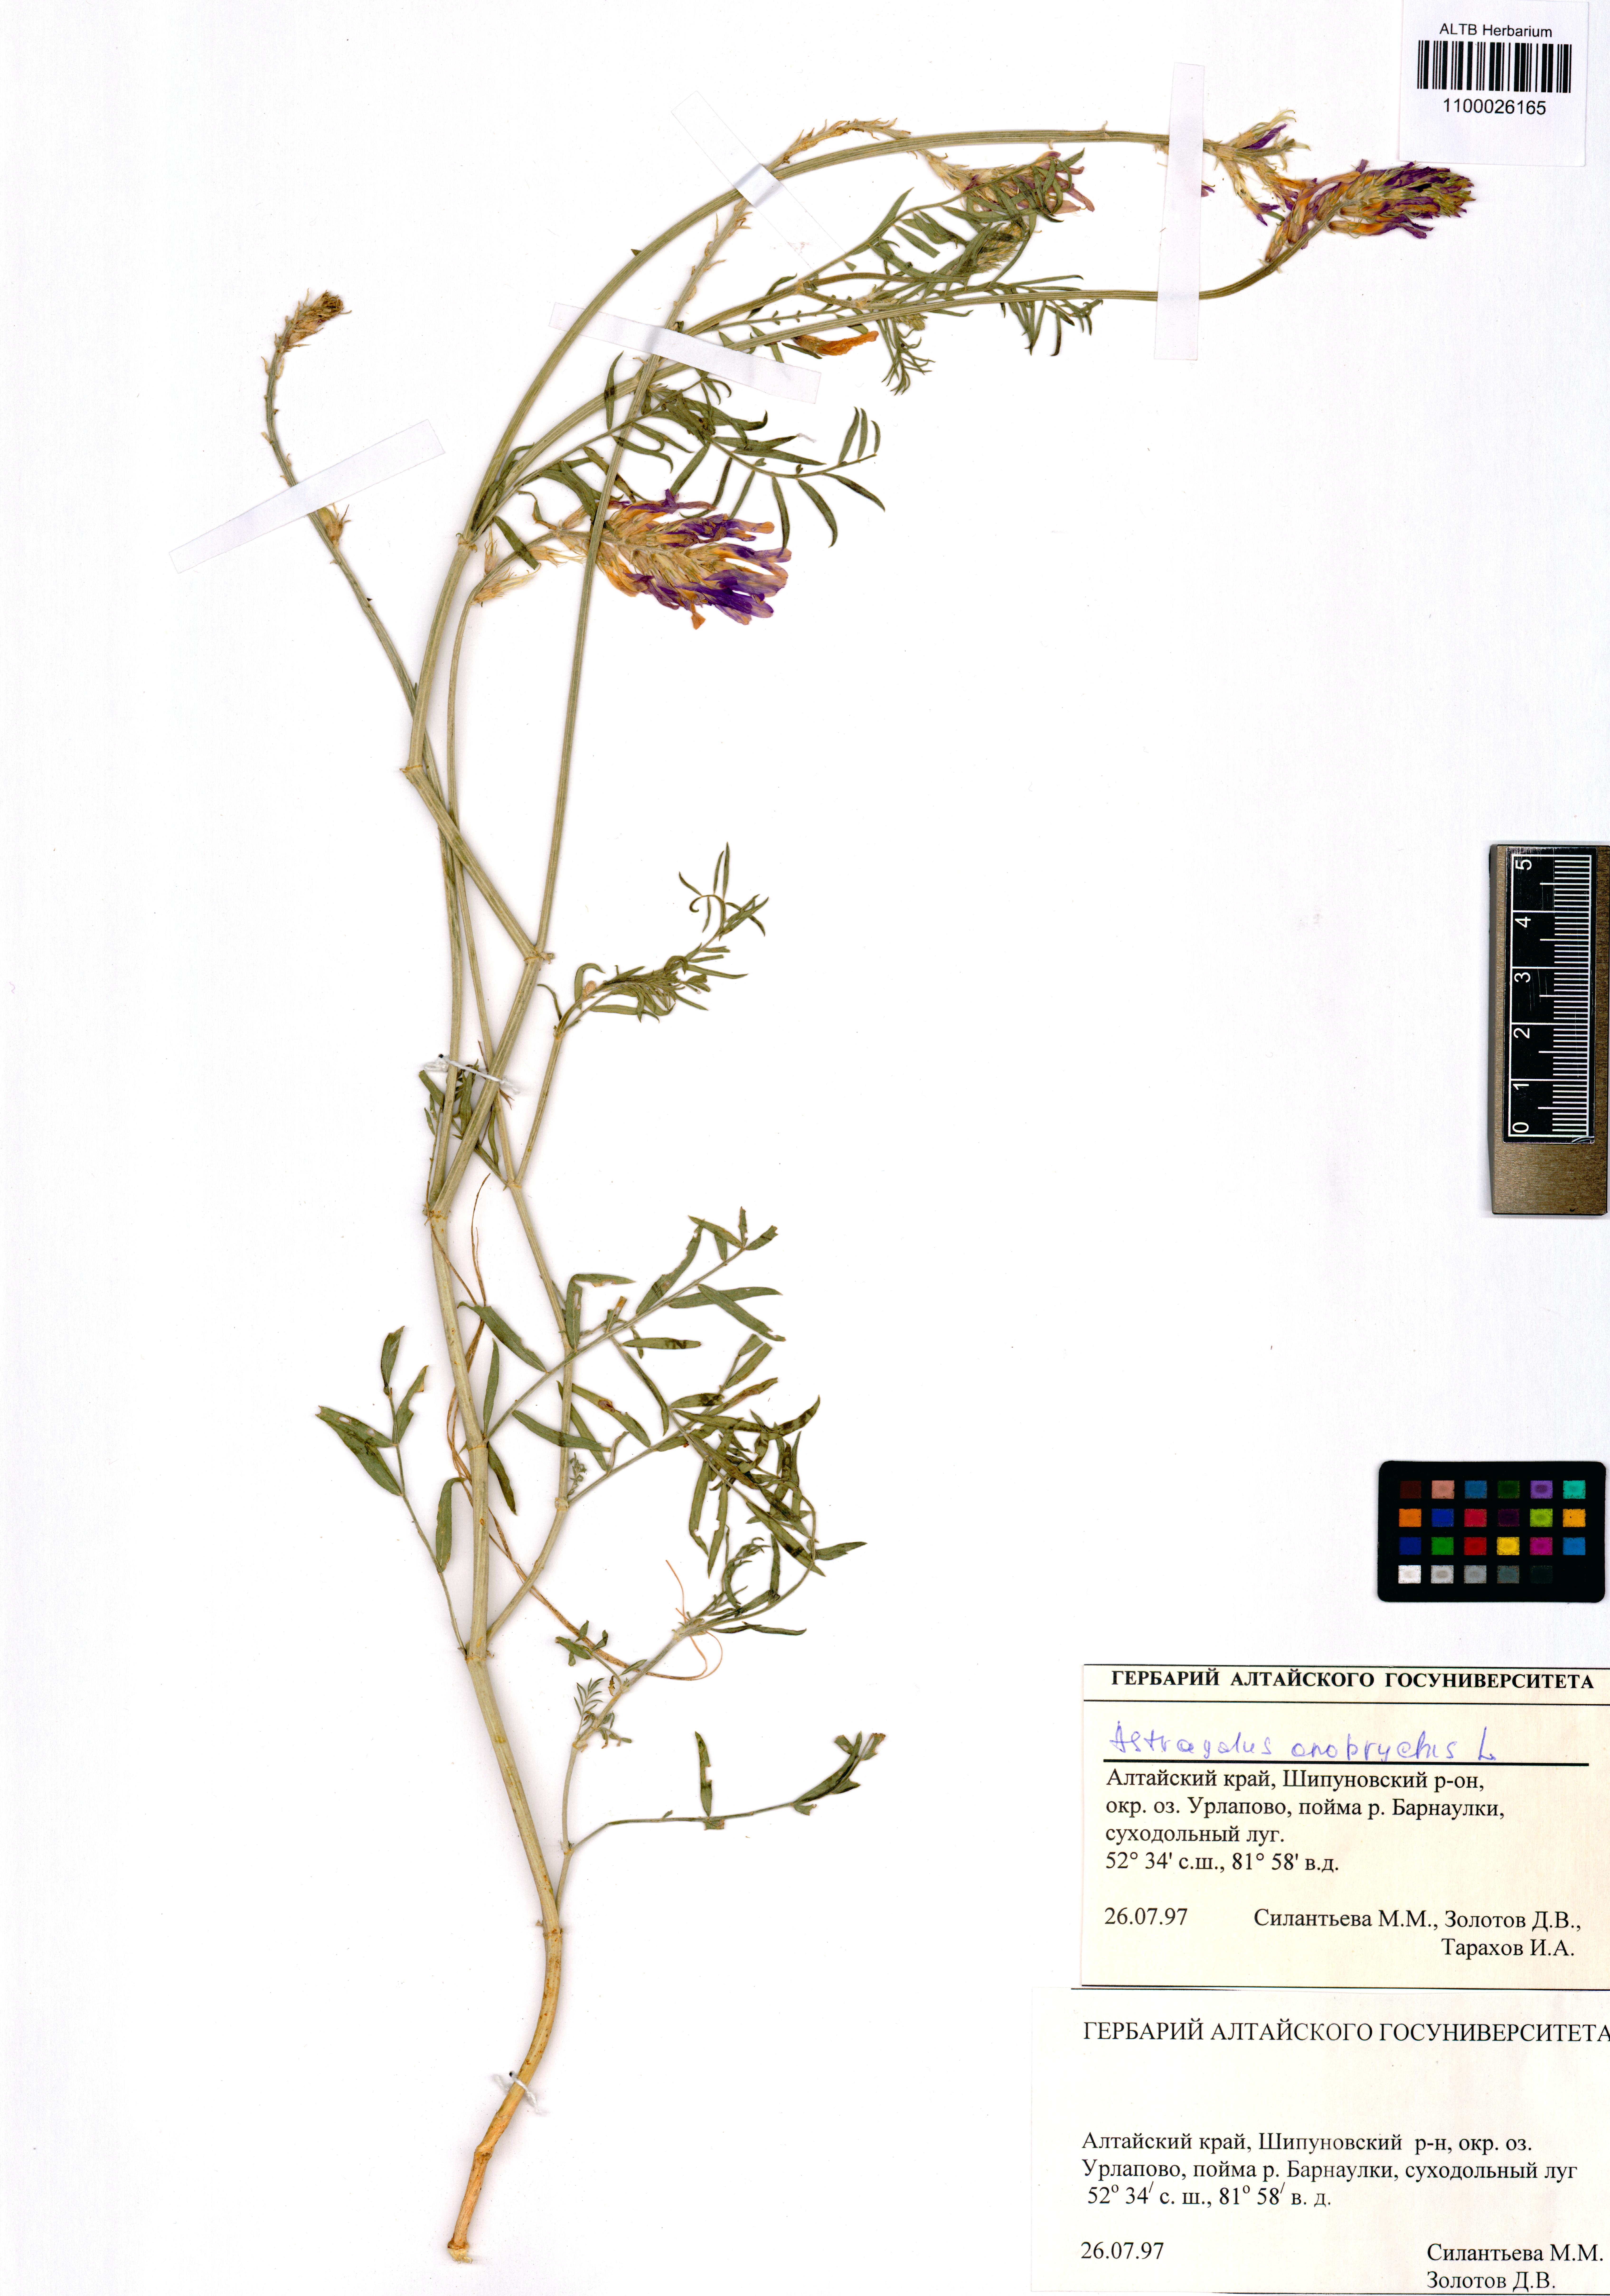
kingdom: Plantae
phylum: Tracheophyta
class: Magnoliopsida
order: Fabales
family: Fabaceae
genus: Astragalus
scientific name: Astragalus onobrychis
